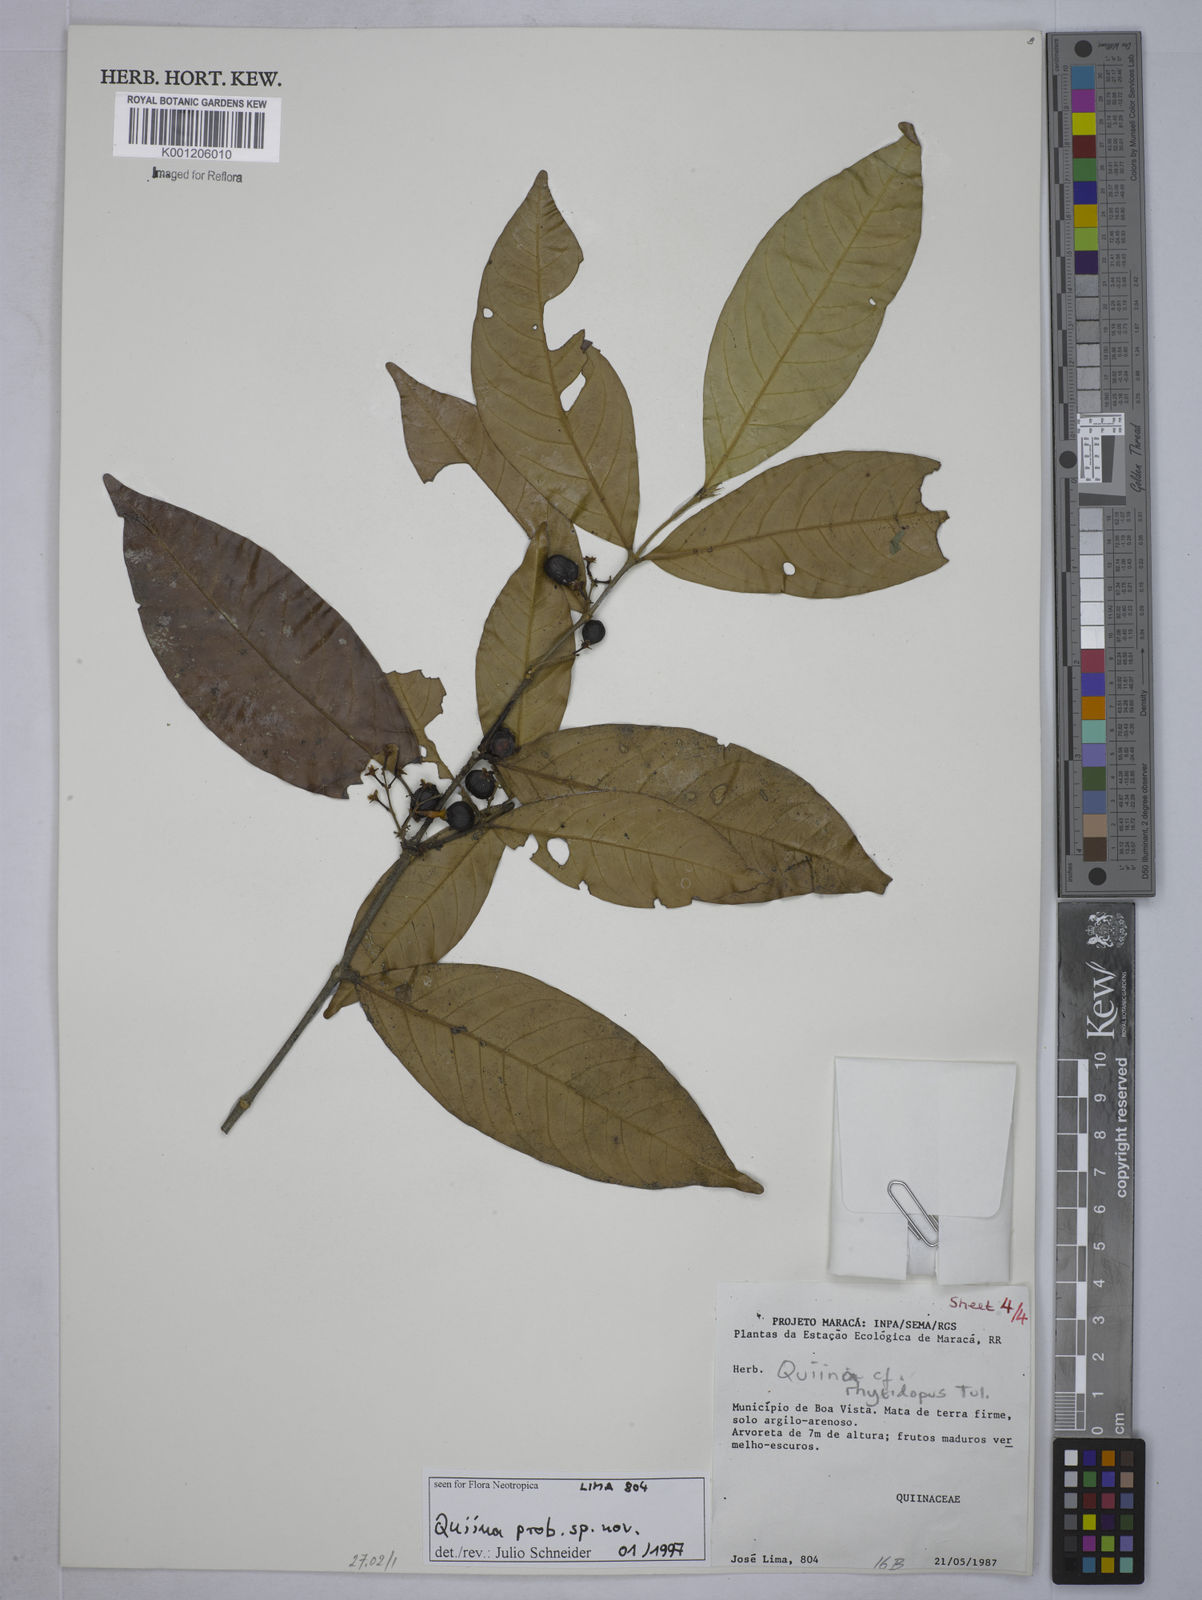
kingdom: Plantae
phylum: Tracheophyta
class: Magnoliopsida
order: Malpighiales
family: Quiinaceae
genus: Quiina
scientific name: Quiina
